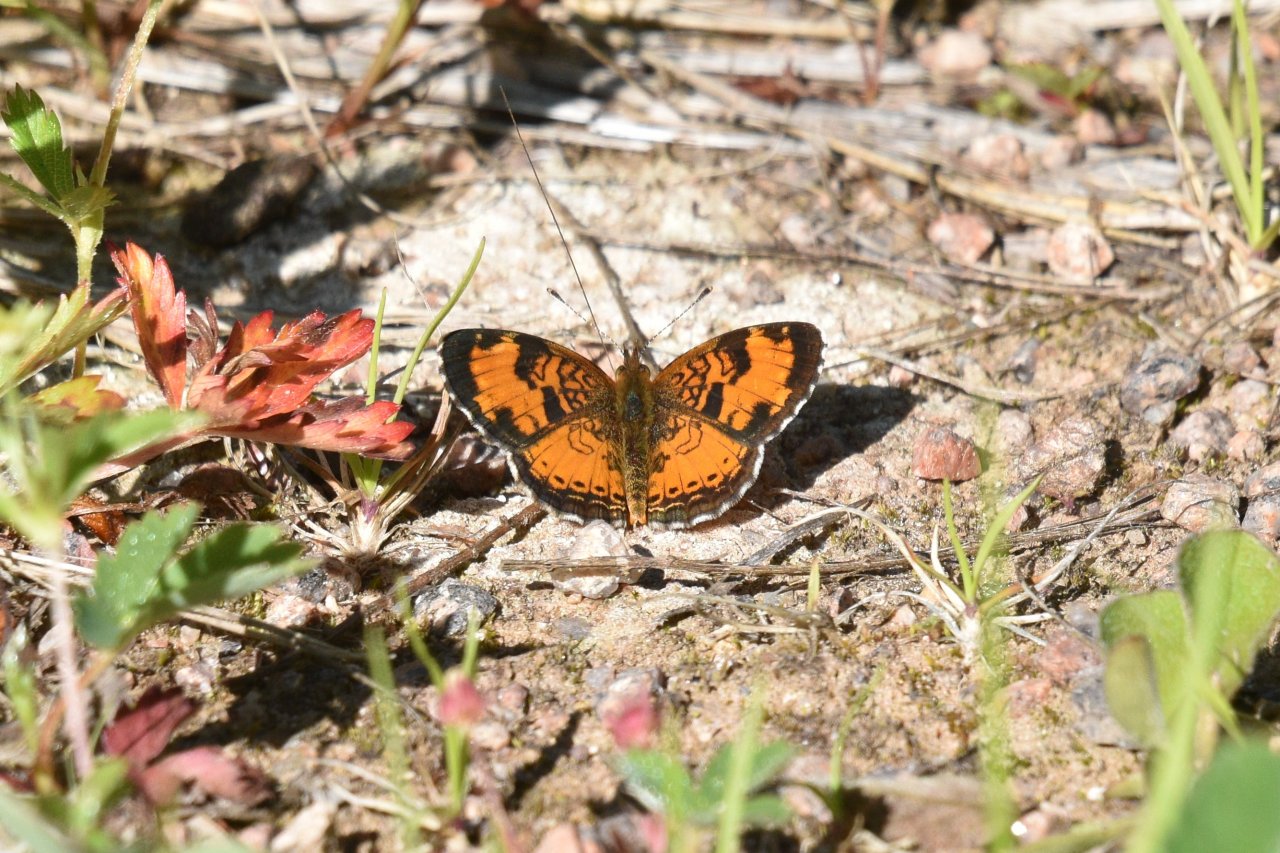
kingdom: Animalia
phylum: Arthropoda
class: Insecta
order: Lepidoptera
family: Nymphalidae
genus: Phyciodes
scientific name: Phyciodes tharos
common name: Northern Crescent
